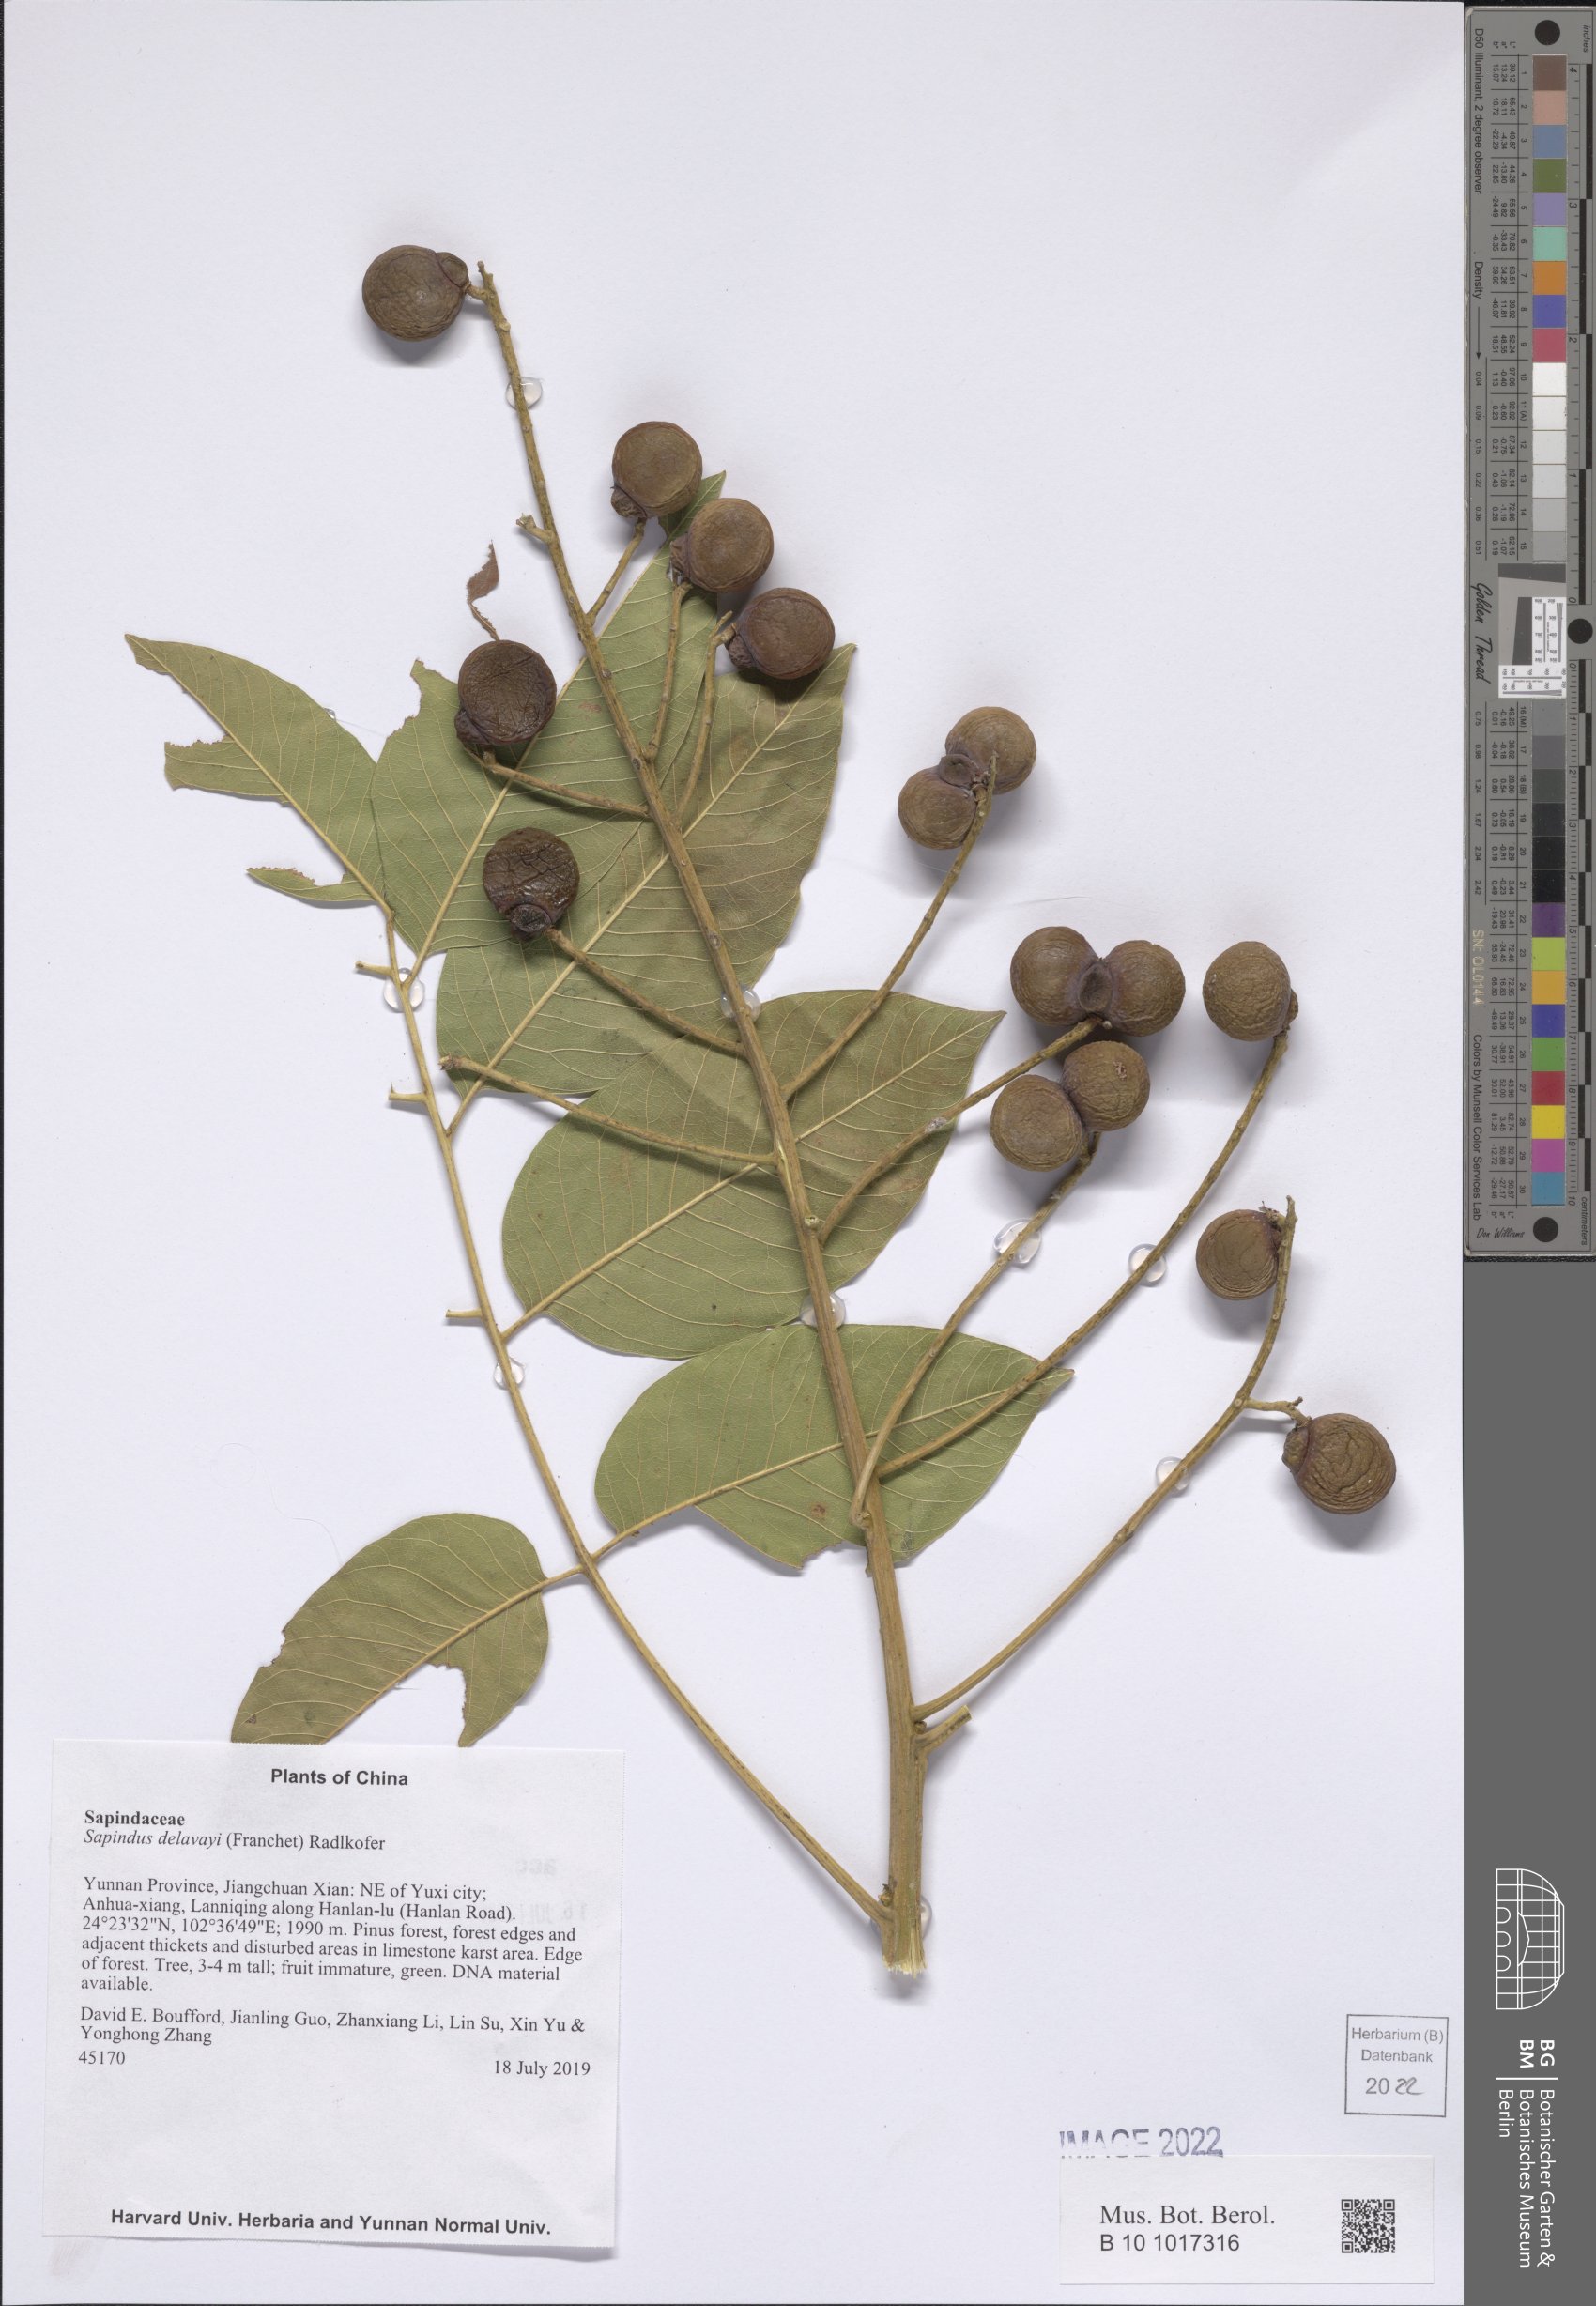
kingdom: Plantae
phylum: Tracheophyta
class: Magnoliopsida
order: Sapindales
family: Sapindaceae
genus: Sapindus
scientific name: Sapindus delavayi
